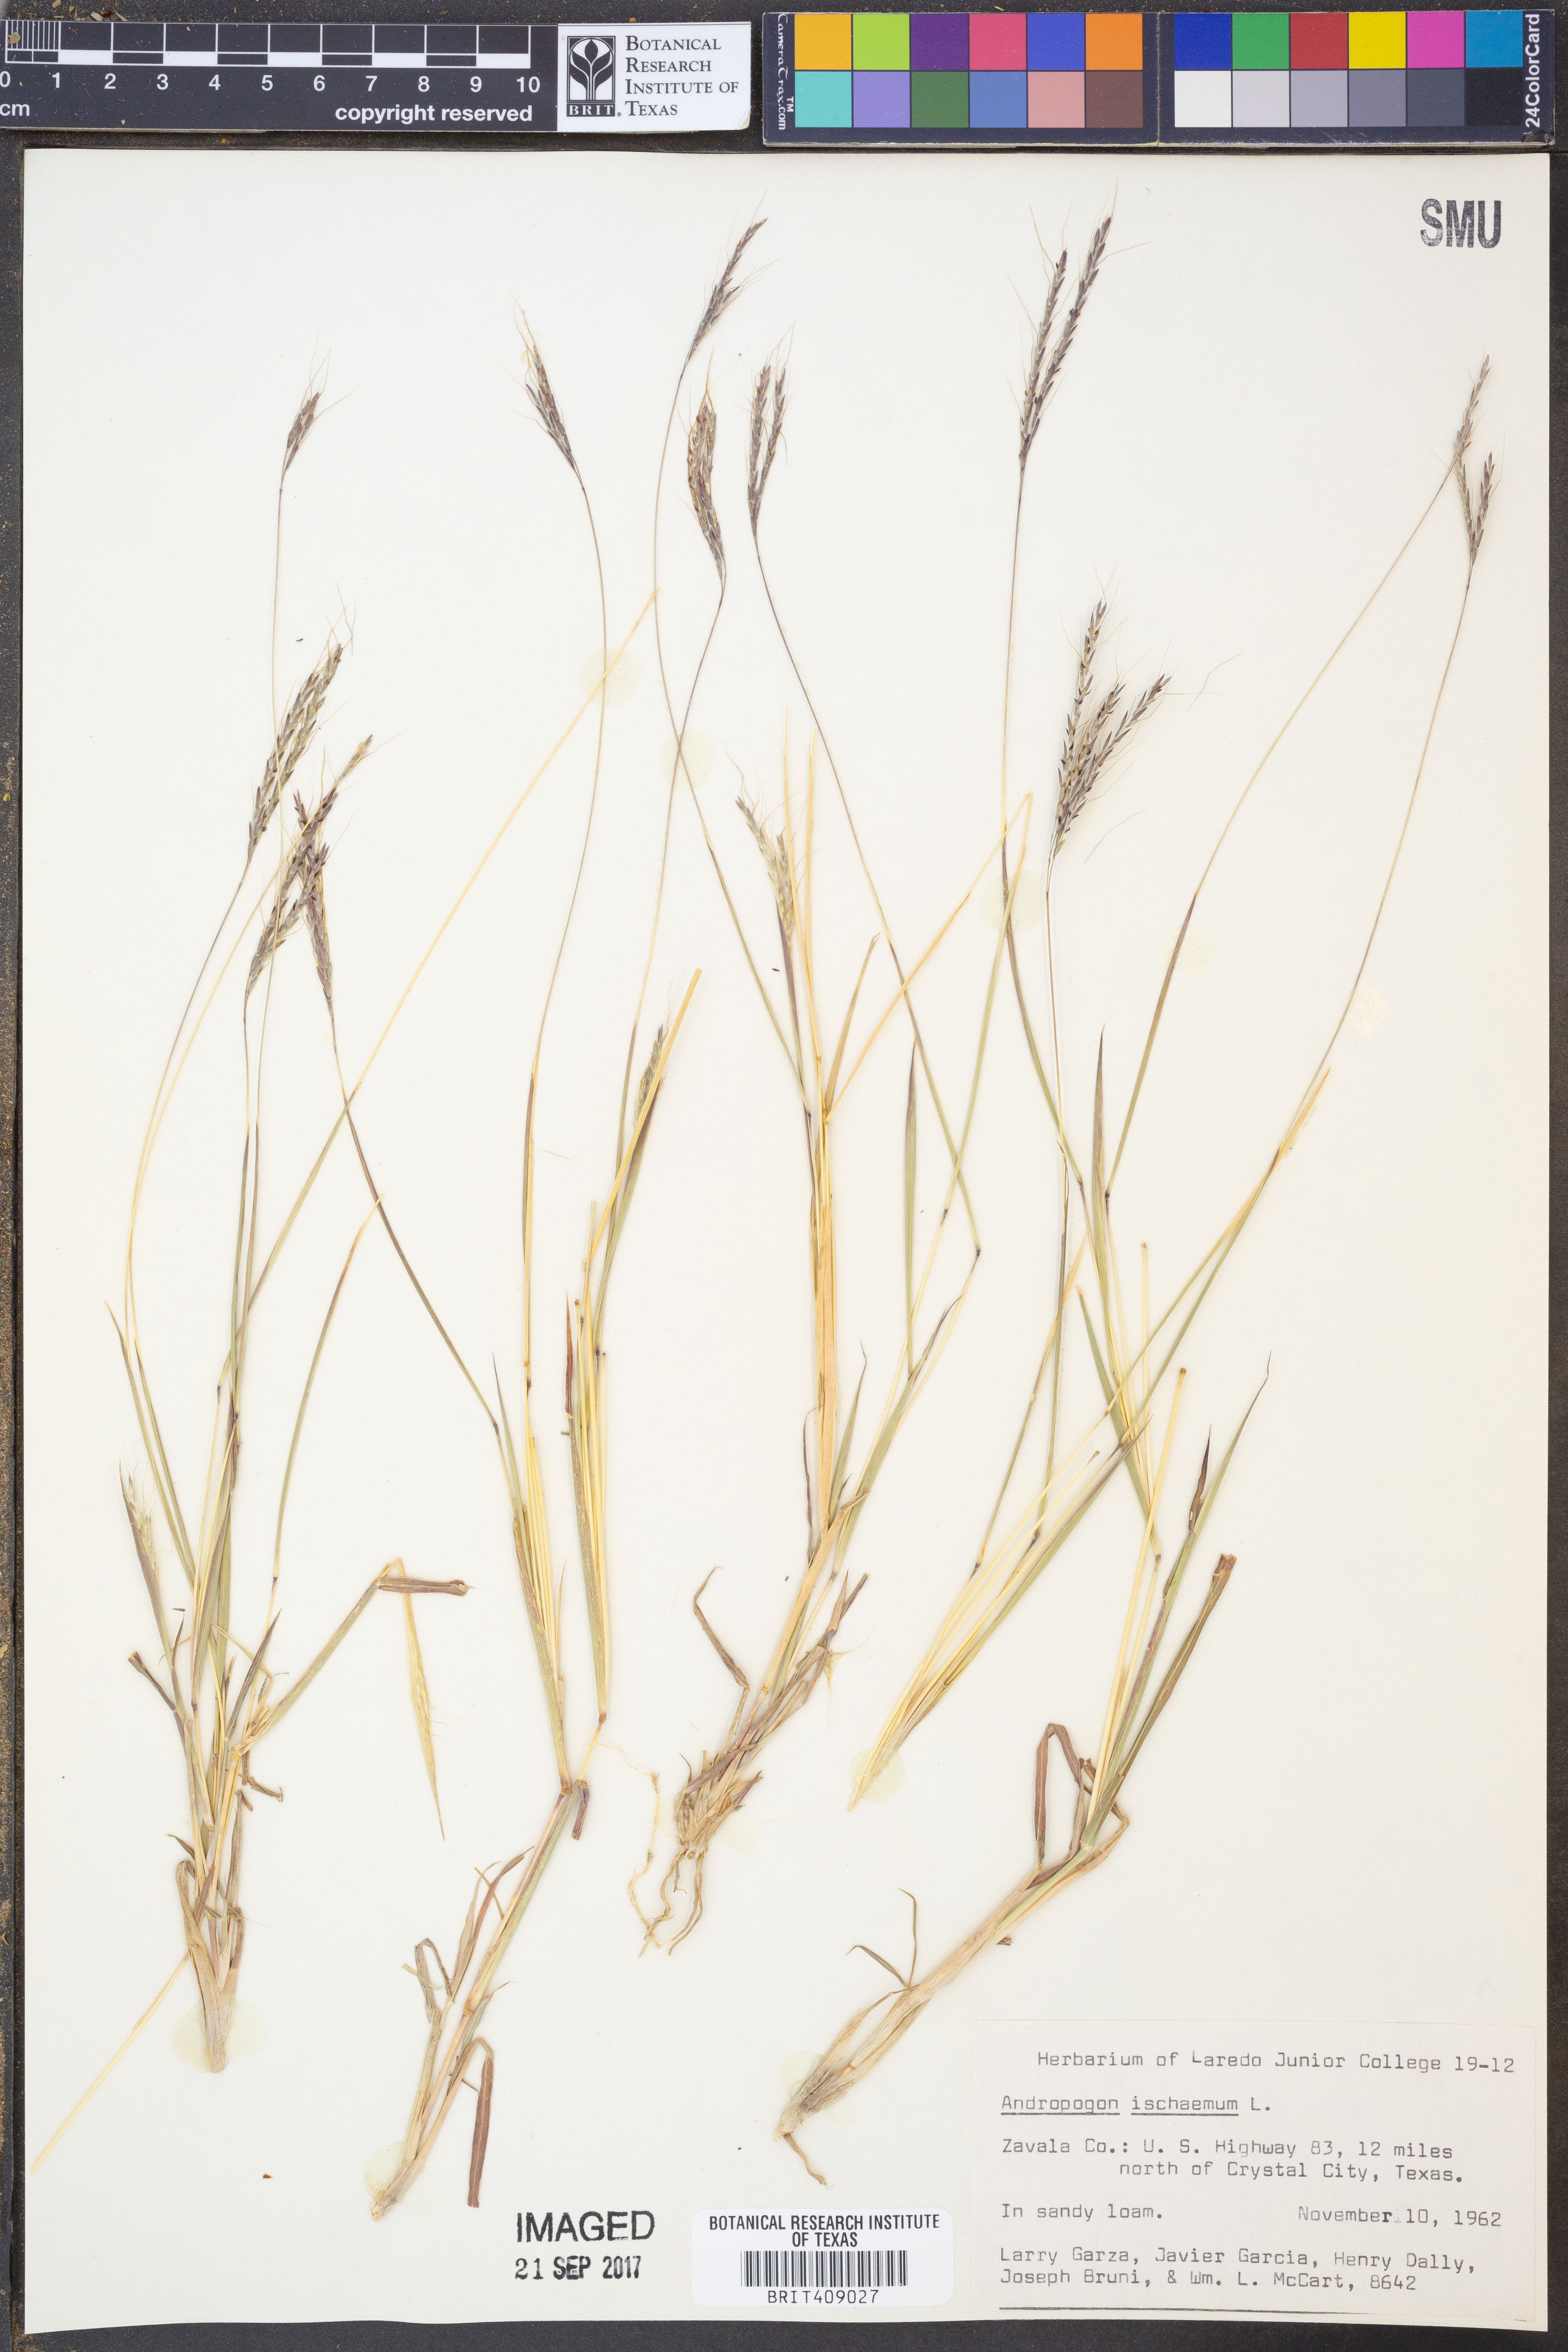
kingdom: Plantae
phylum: Tracheophyta
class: Liliopsida
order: Poales
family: Poaceae
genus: Andropogon
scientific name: Andropogon ischaemum
